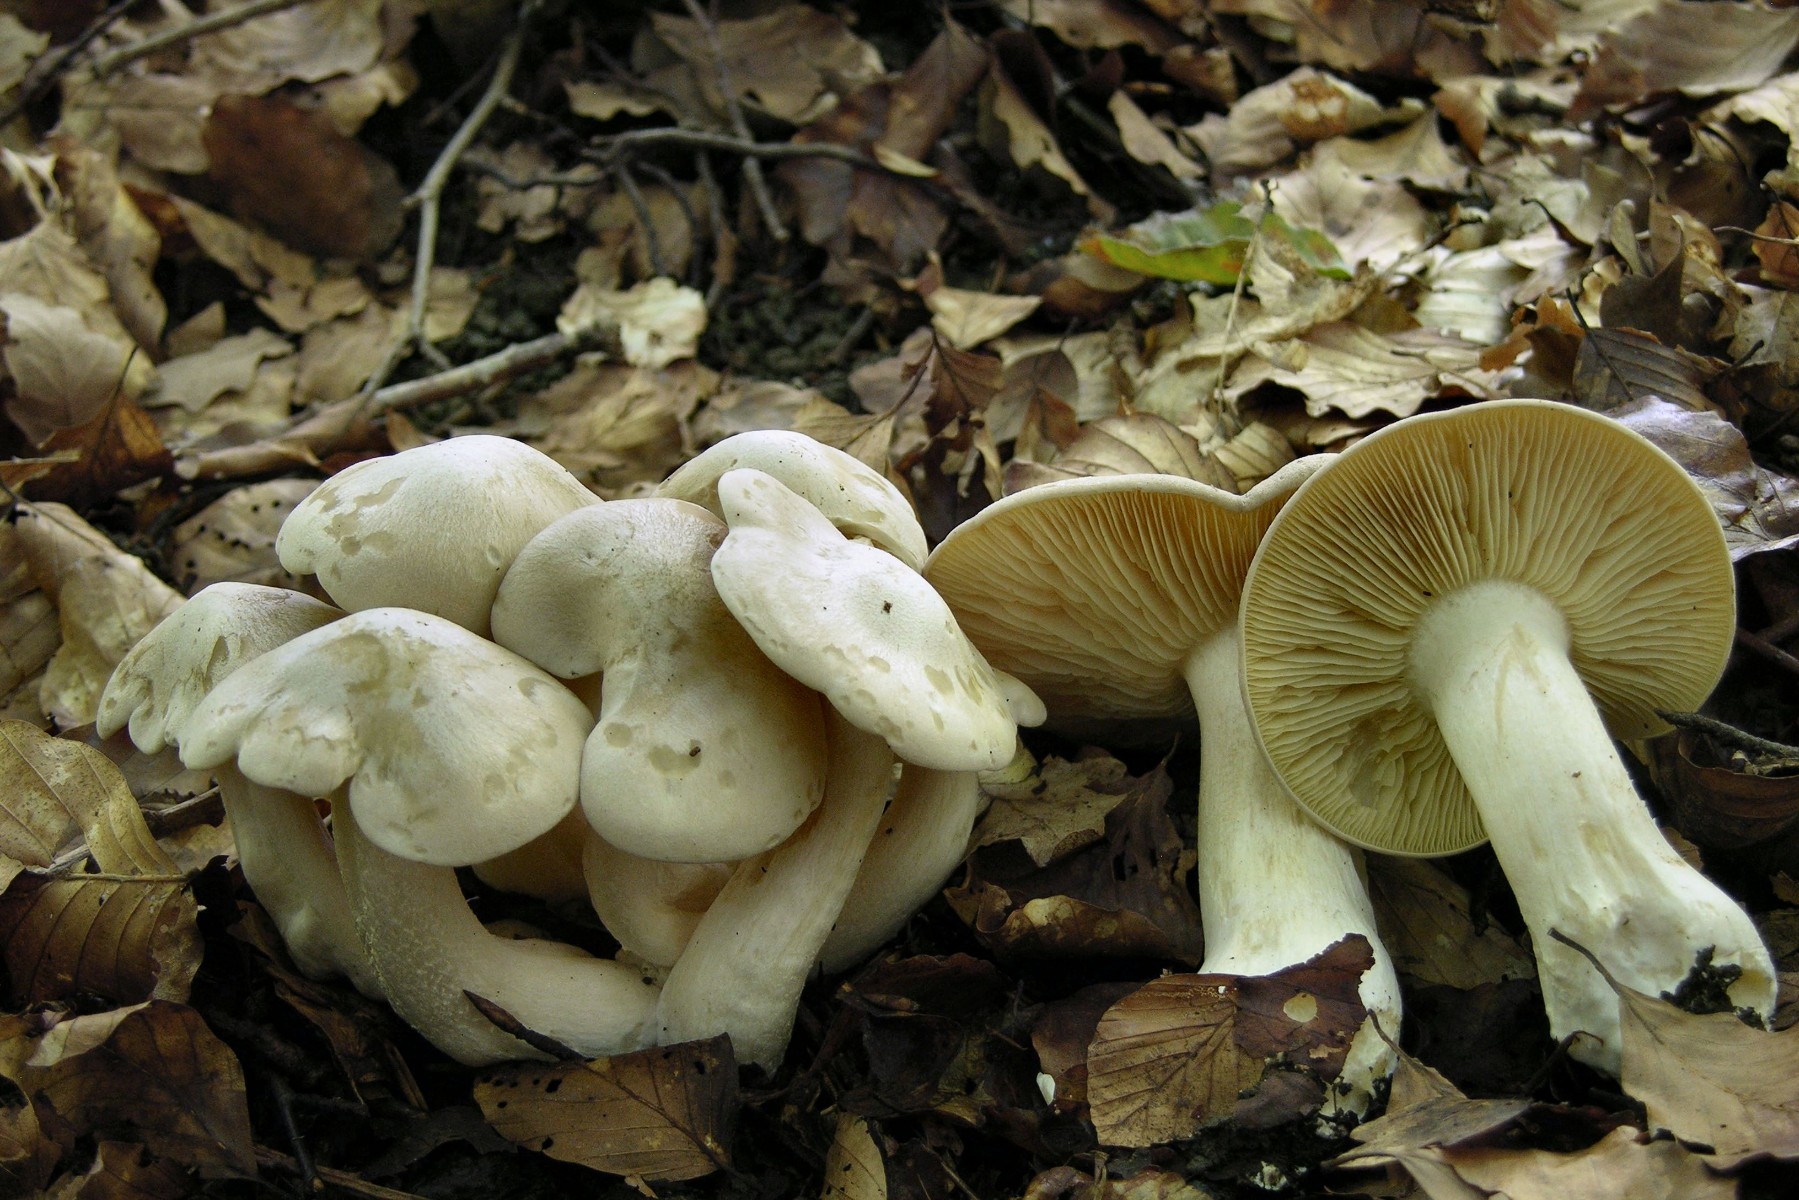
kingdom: Fungi
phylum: Basidiomycota
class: Agaricomycetes
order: Agaricales
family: Entolomataceae
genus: Entoloma
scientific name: Entoloma sinuatum
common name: giftig rødblad
